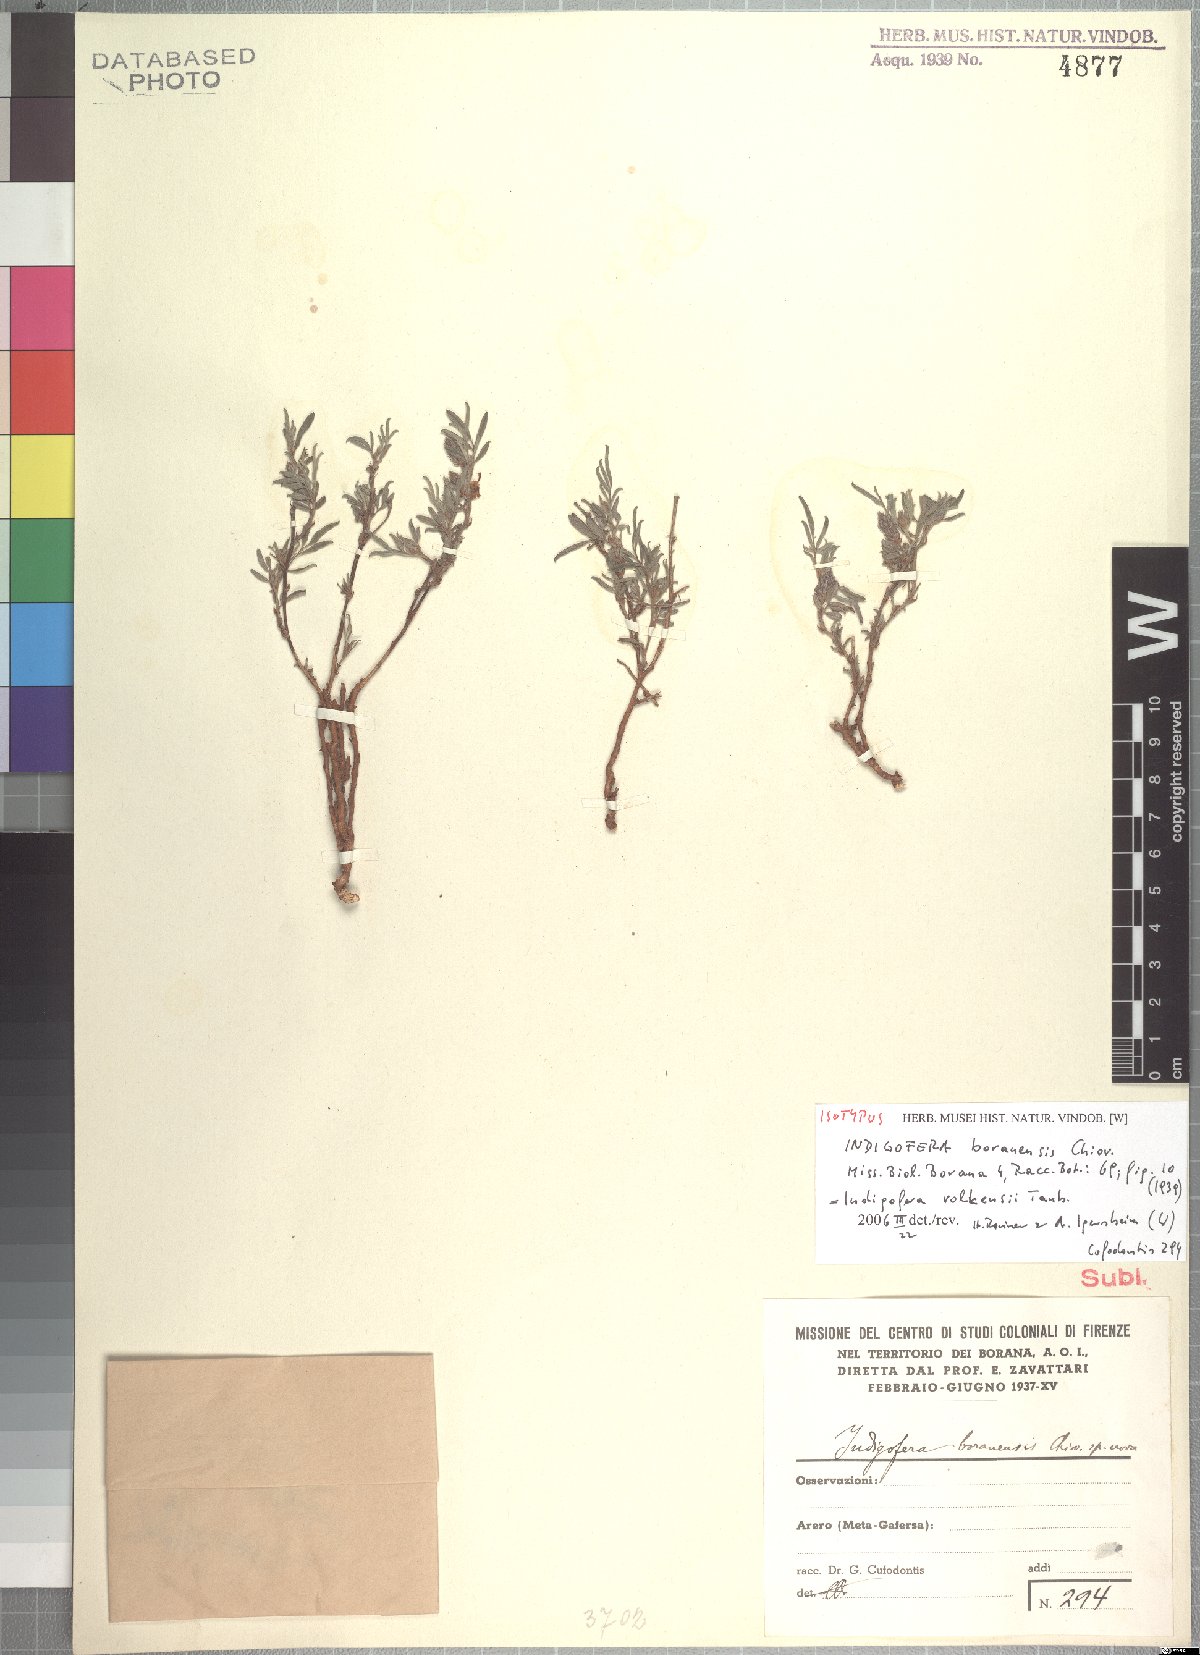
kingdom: Plantae
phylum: Tracheophyta
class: Magnoliopsida
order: Fabales
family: Fabaceae
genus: Indigofera
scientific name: Indigofera volkensii
